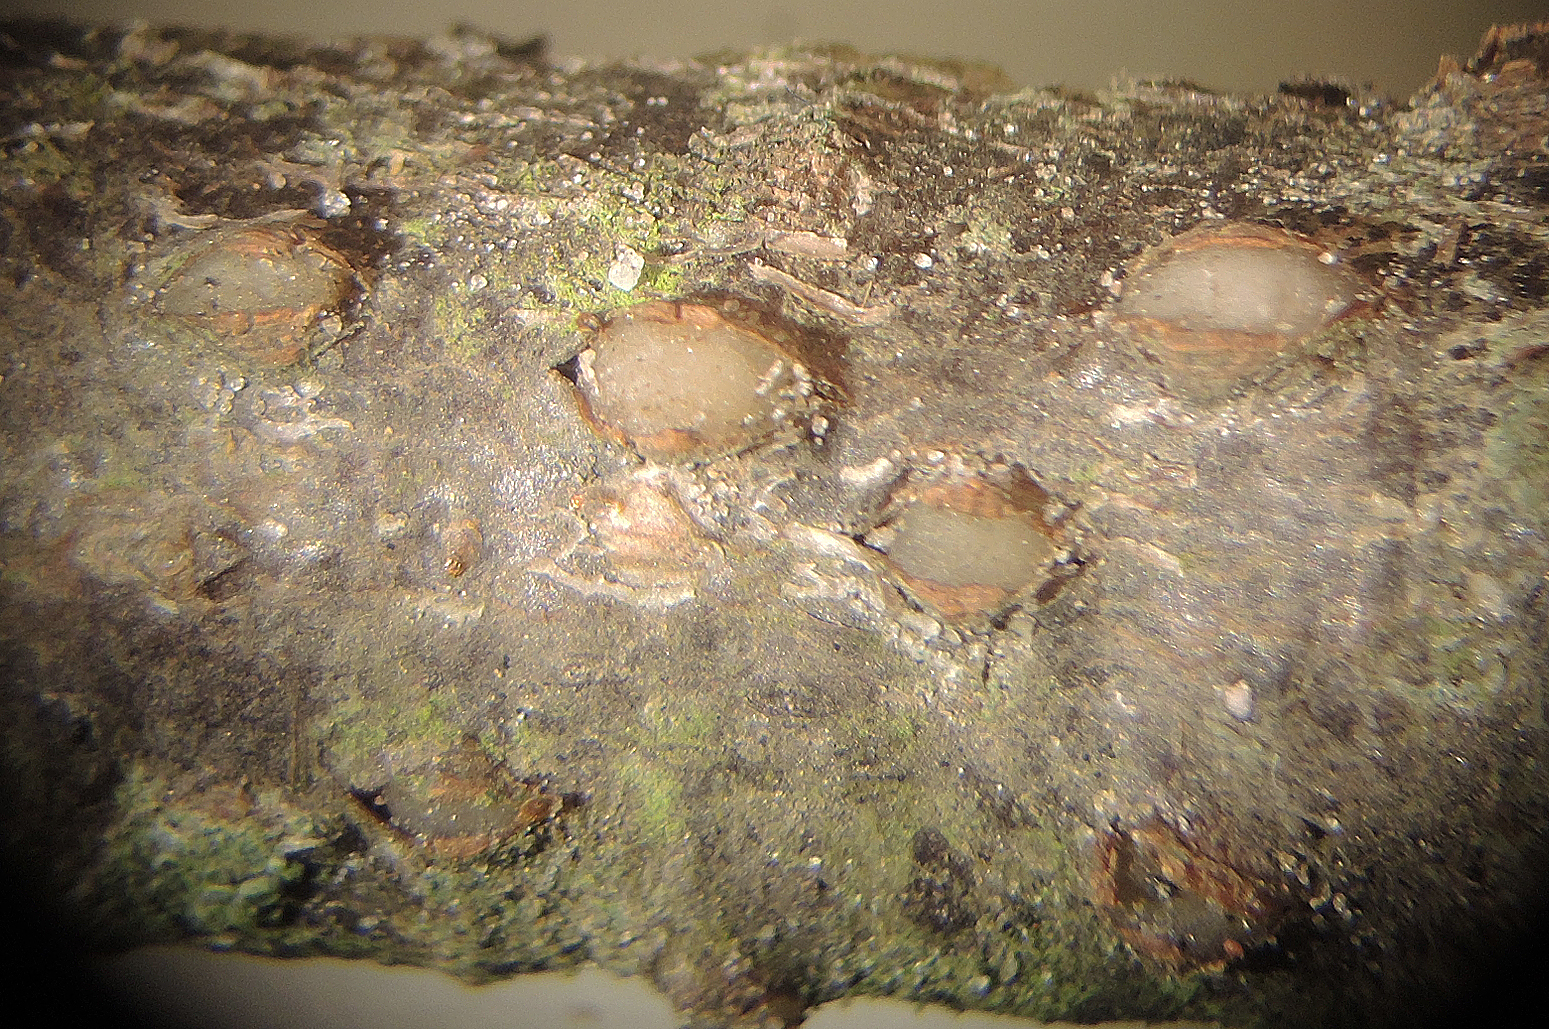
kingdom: Fungi
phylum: Basidiomycota
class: Pucciniomycetes
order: Platygloeales
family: Platygloeaceae
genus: Platygloea
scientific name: Platygloea disciformis
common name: linde-slimklat
